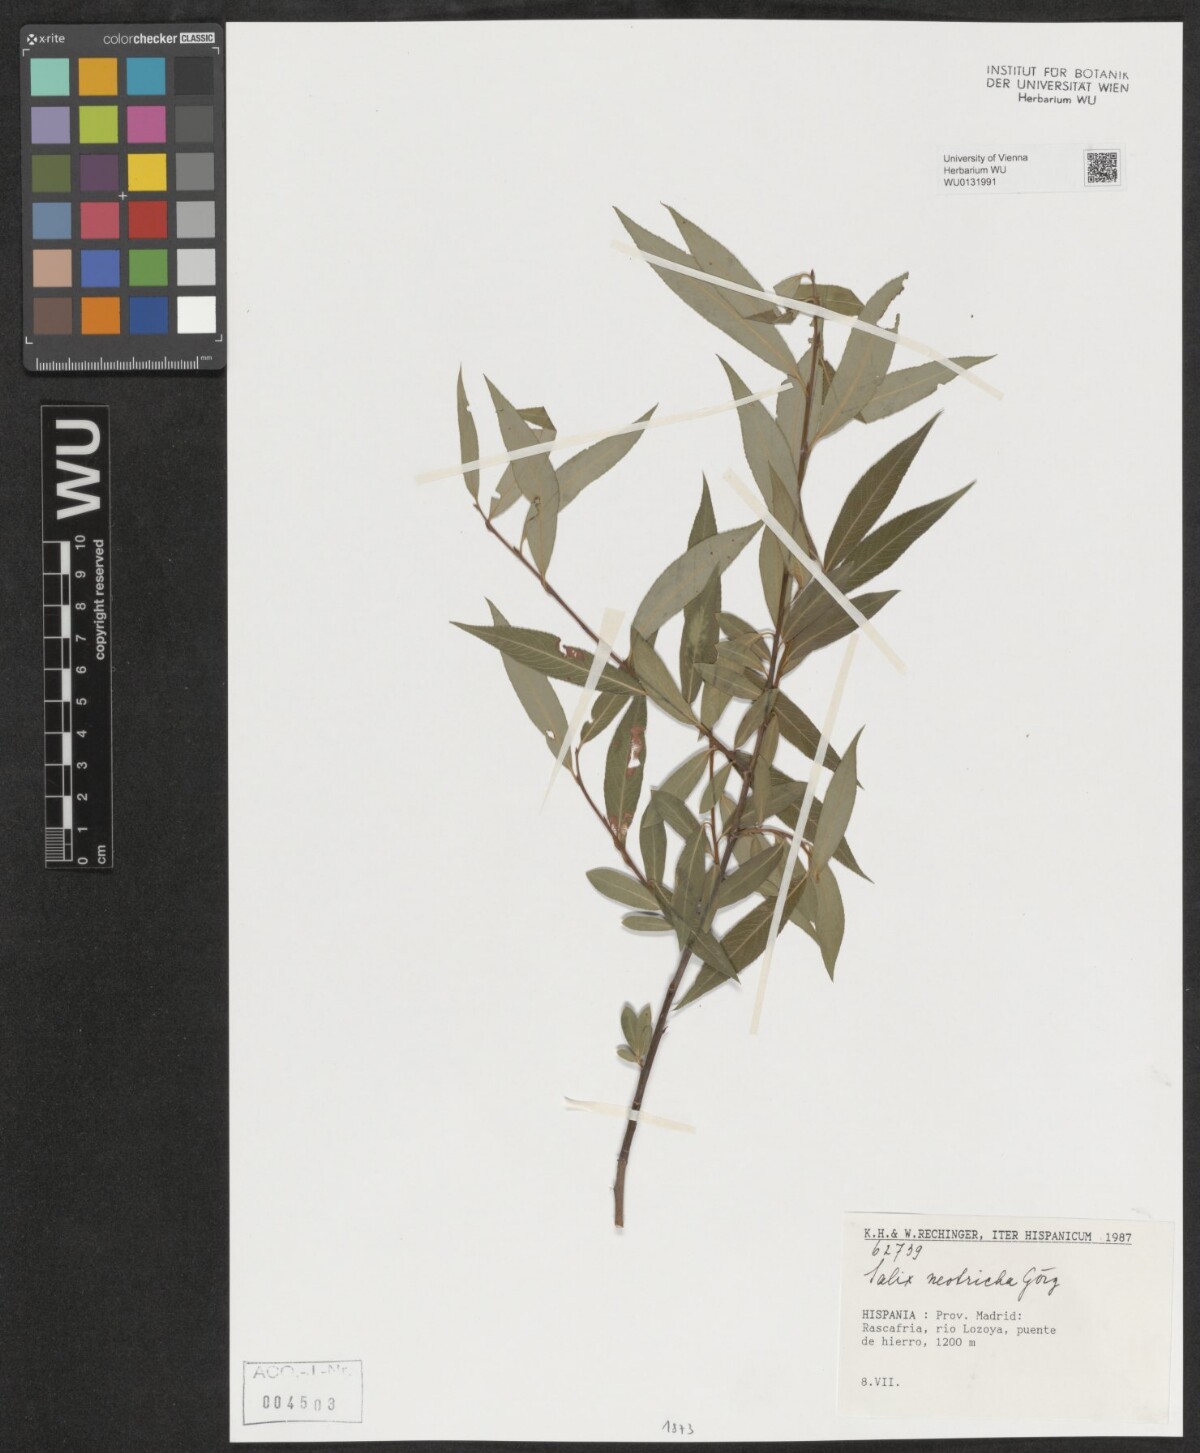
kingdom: Plantae
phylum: Tracheophyta
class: Magnoliopsida
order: Malpighiales
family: Salicaceae
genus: Salix
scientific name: Salix rubens
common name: Hybrid crack willow
